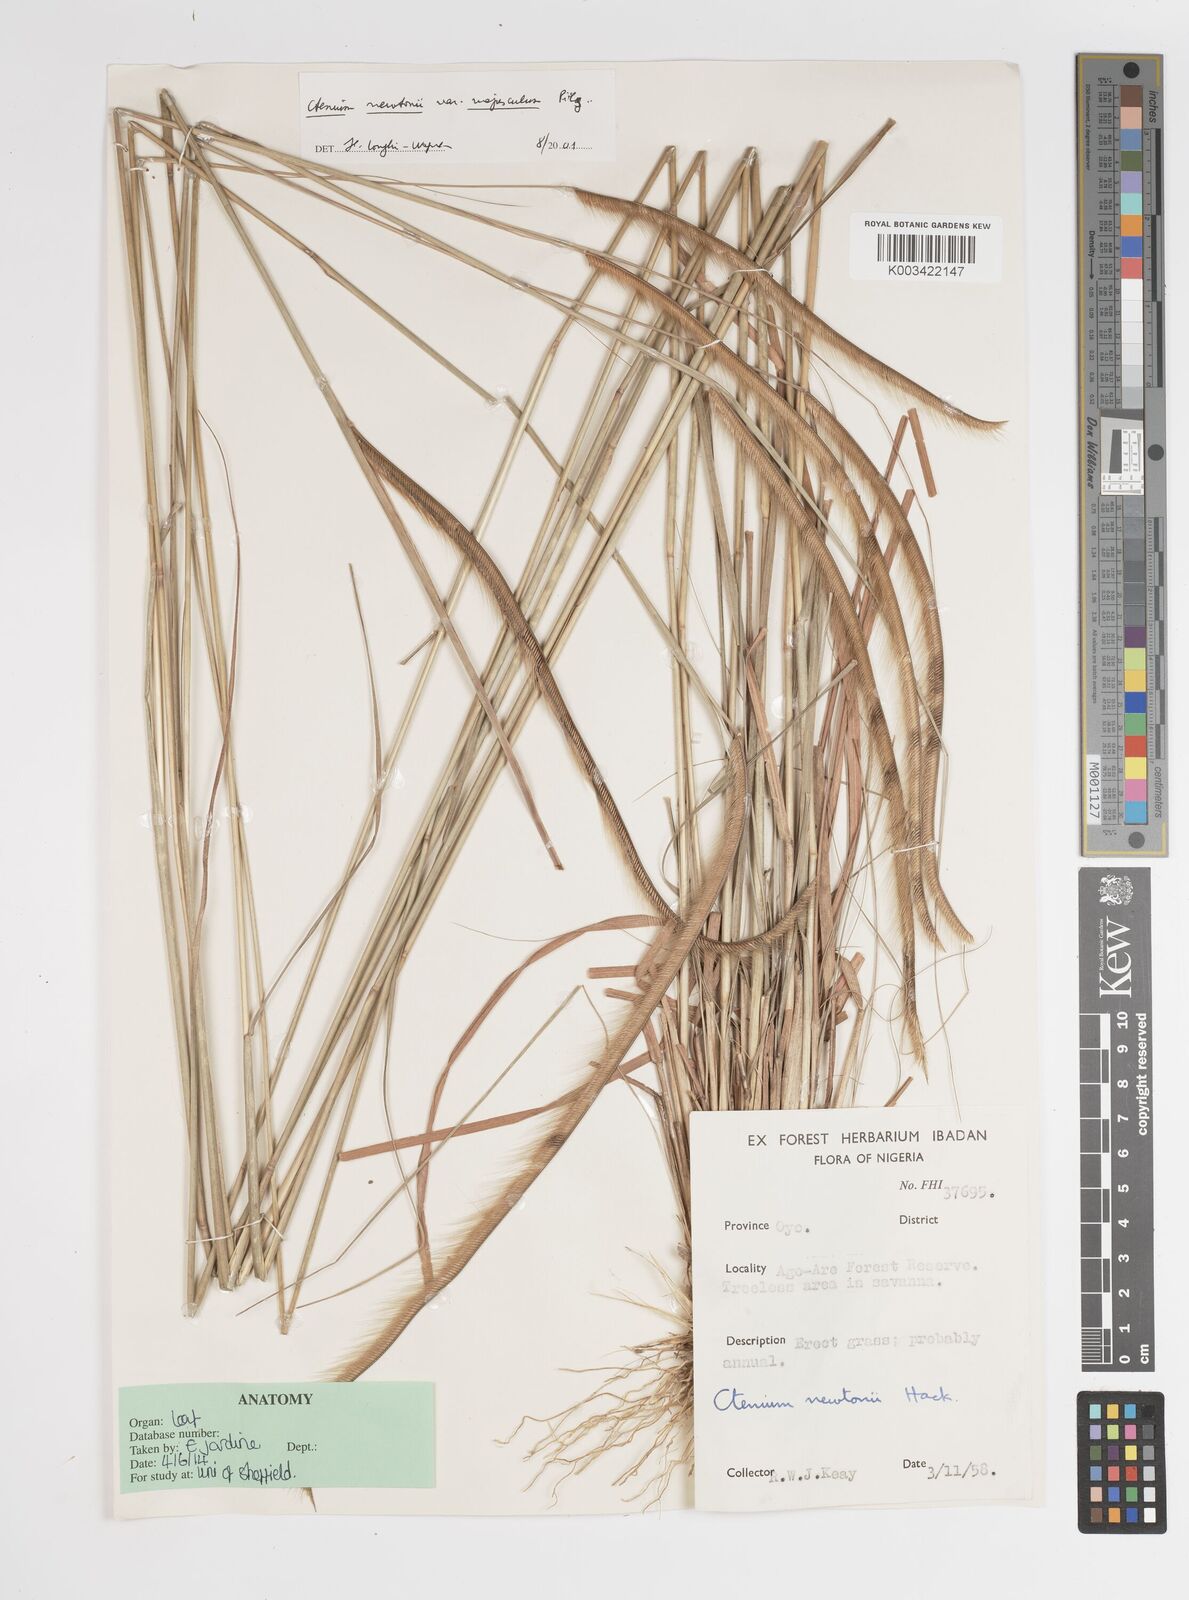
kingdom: Plantae
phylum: Tracheophyta
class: Liliopsida
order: Poales
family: Poaceae
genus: Ctenium
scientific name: Ctenium newtonii
